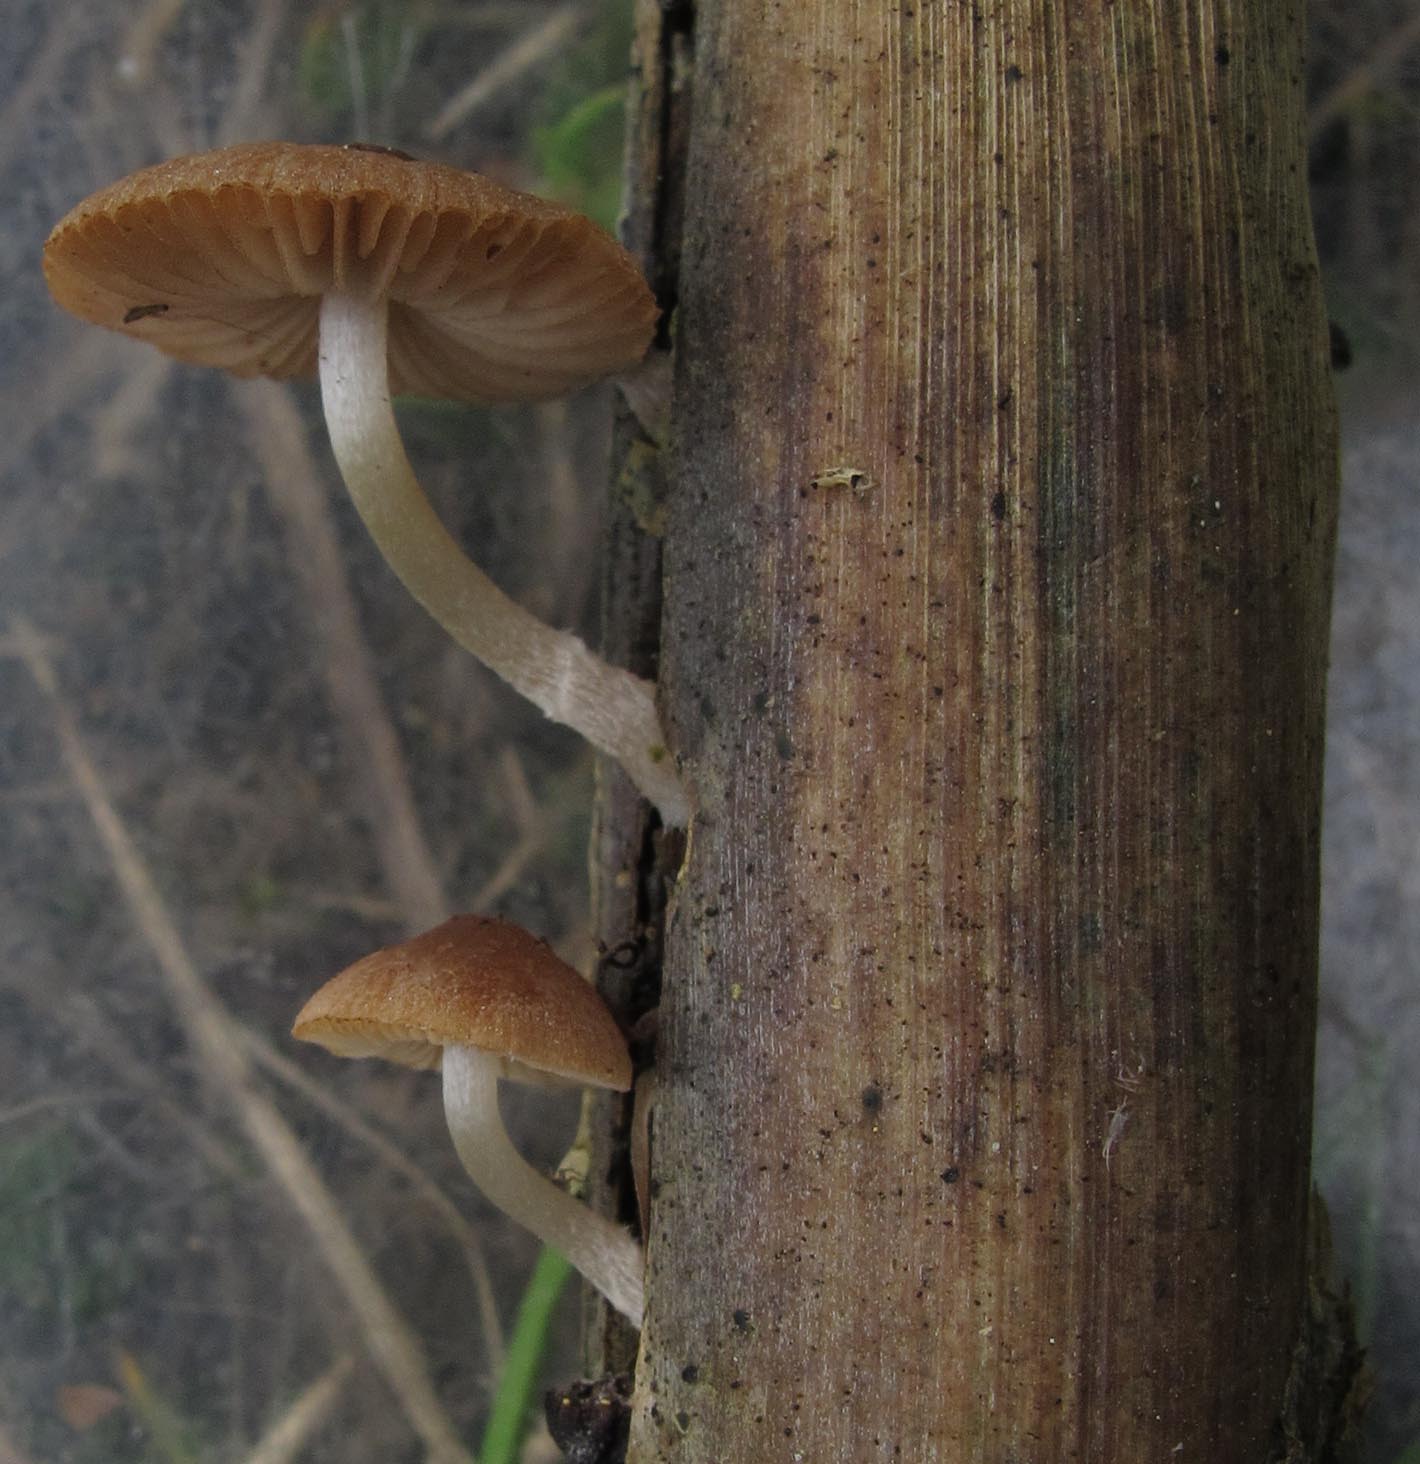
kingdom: Fungi
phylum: Basidiomycota
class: Agaricomycetes
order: Agaricales
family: Psathyrellaceae
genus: Candolleomyces
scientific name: Candolleomyces typhae
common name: dunhammer-mørkhat
